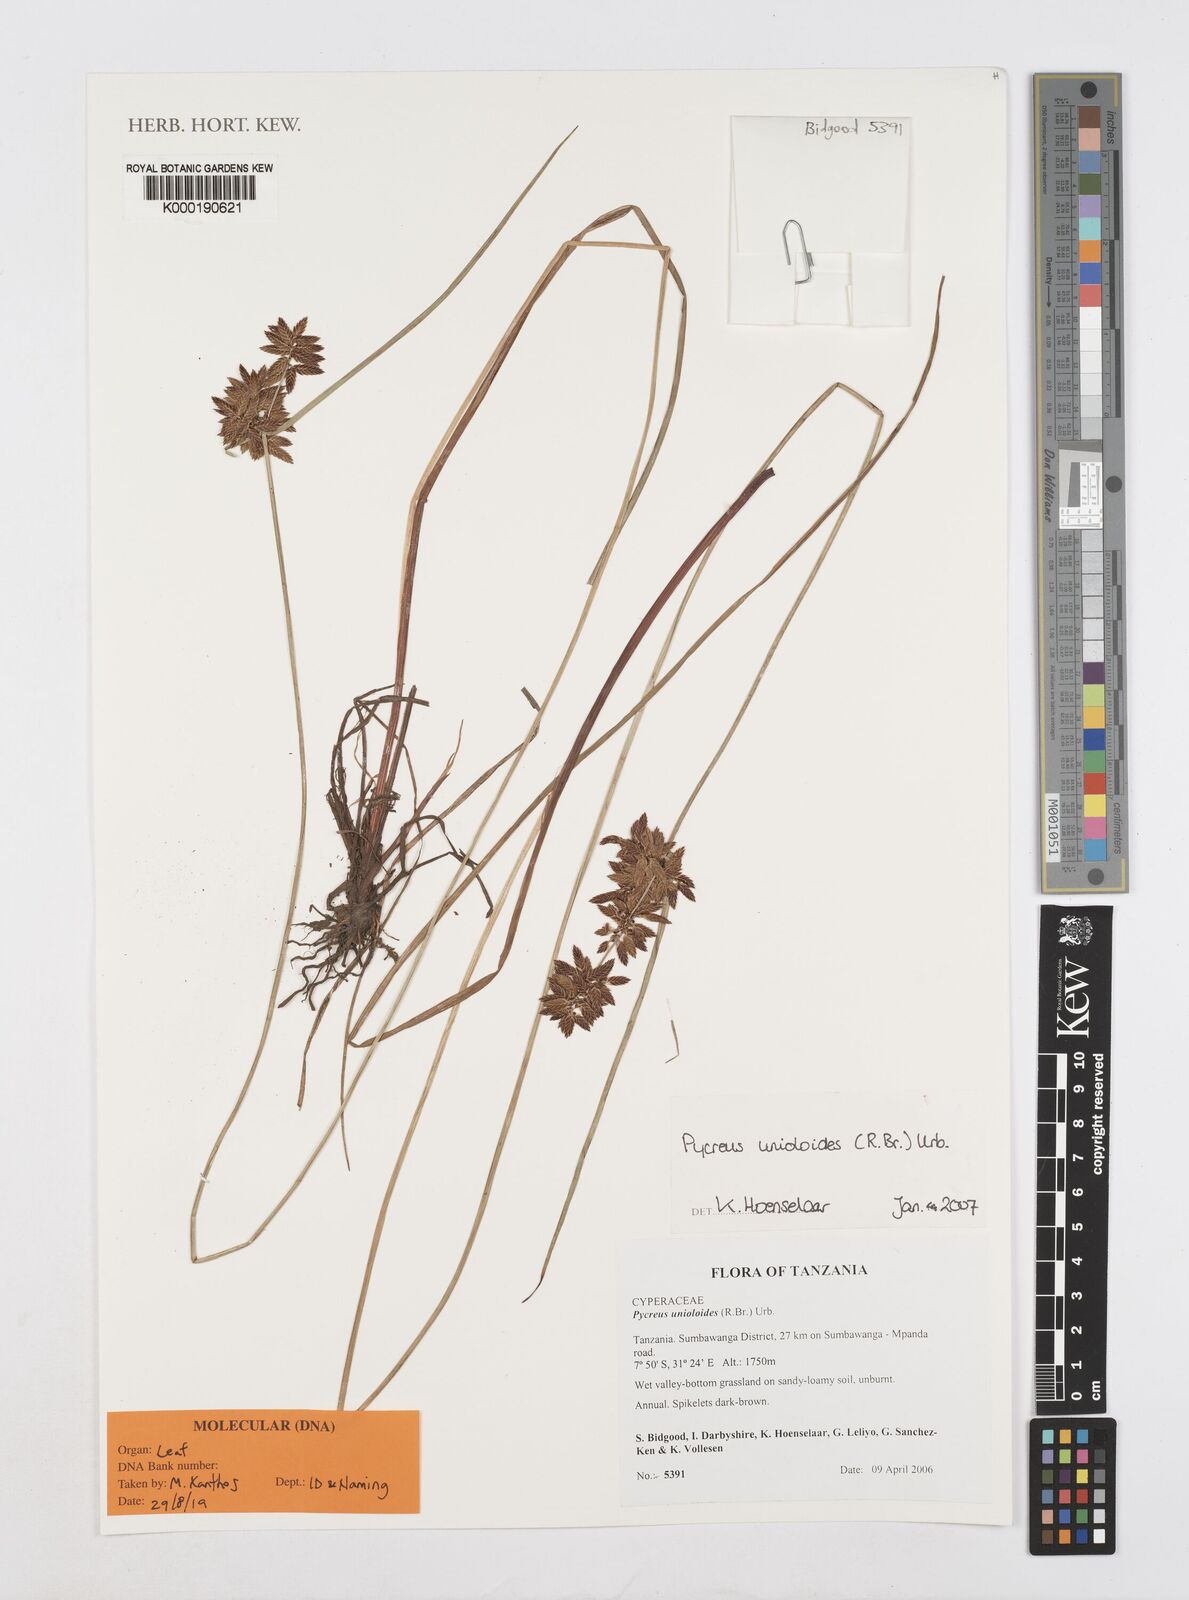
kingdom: Plantae
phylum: Tracheophyta
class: Liliopsida
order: Poales
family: Cyperaceae
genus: Cyperus
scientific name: Cyperus unioloides
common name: Uniola flatsedge
